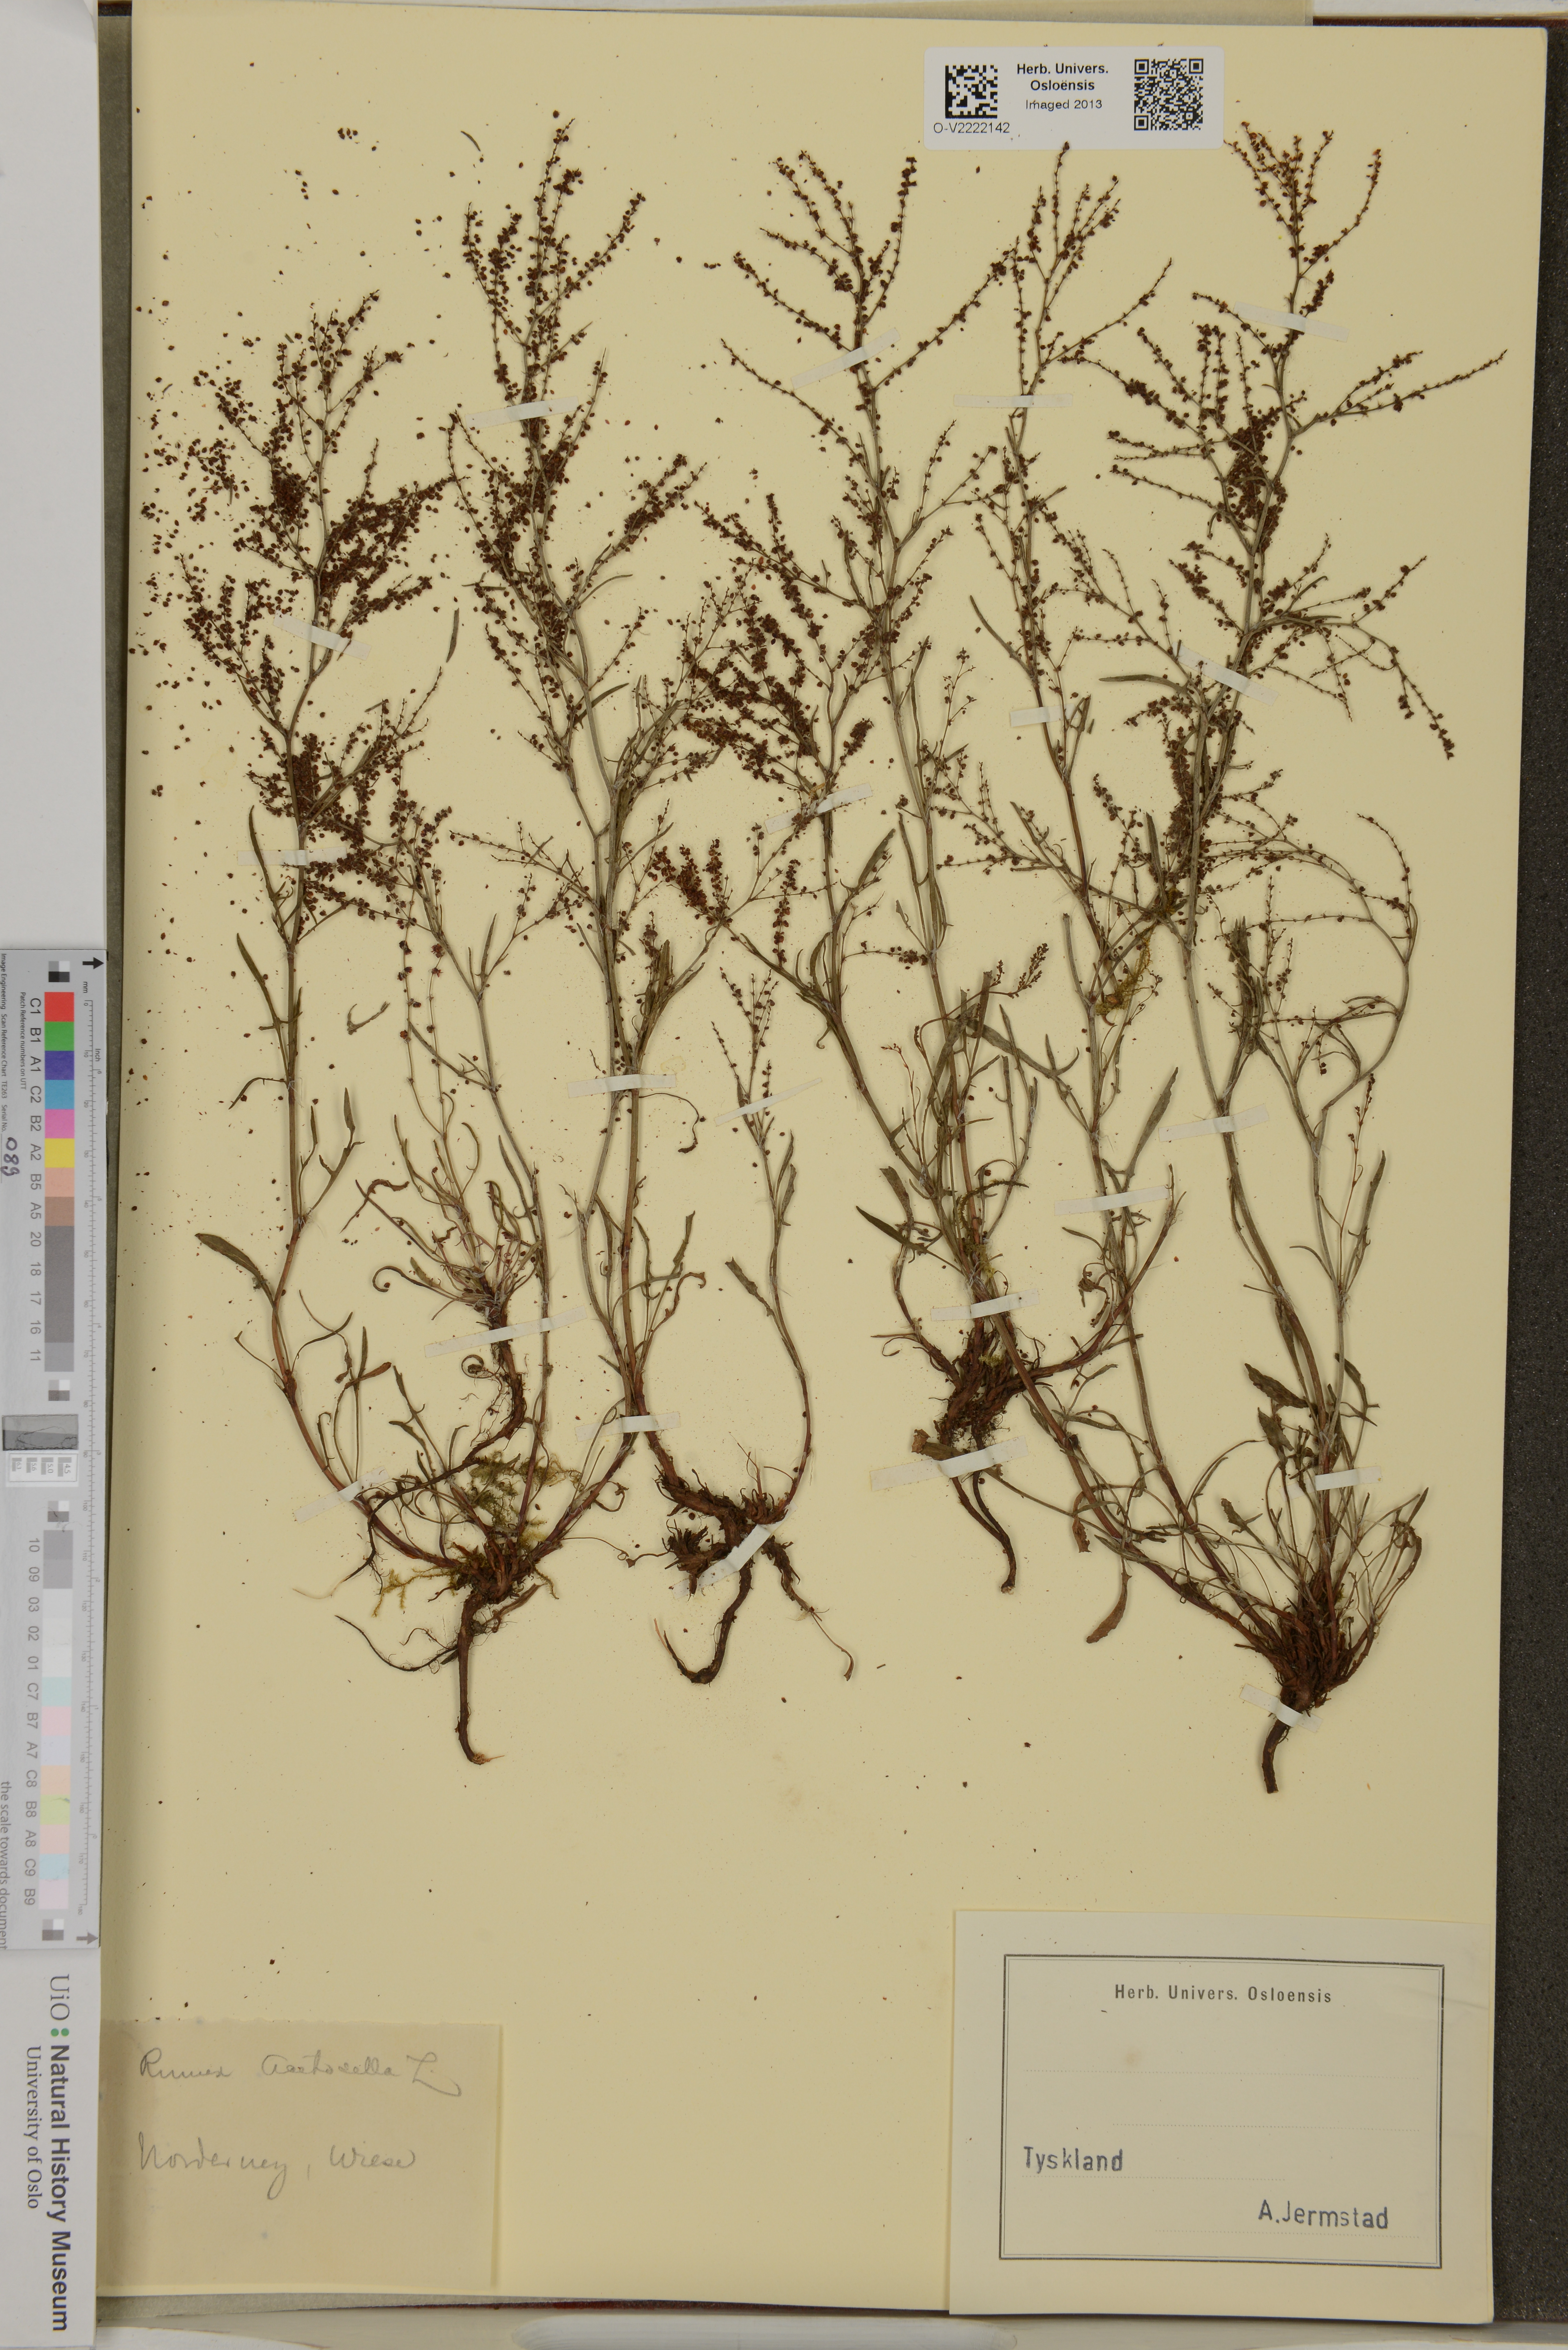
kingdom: Plantae
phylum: Tracheophyta
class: Magnoliopsida
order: Caryophyllales
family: Polygonaceae
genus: Rumex
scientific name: Rumex acetosella
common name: Common sheep sorrel
